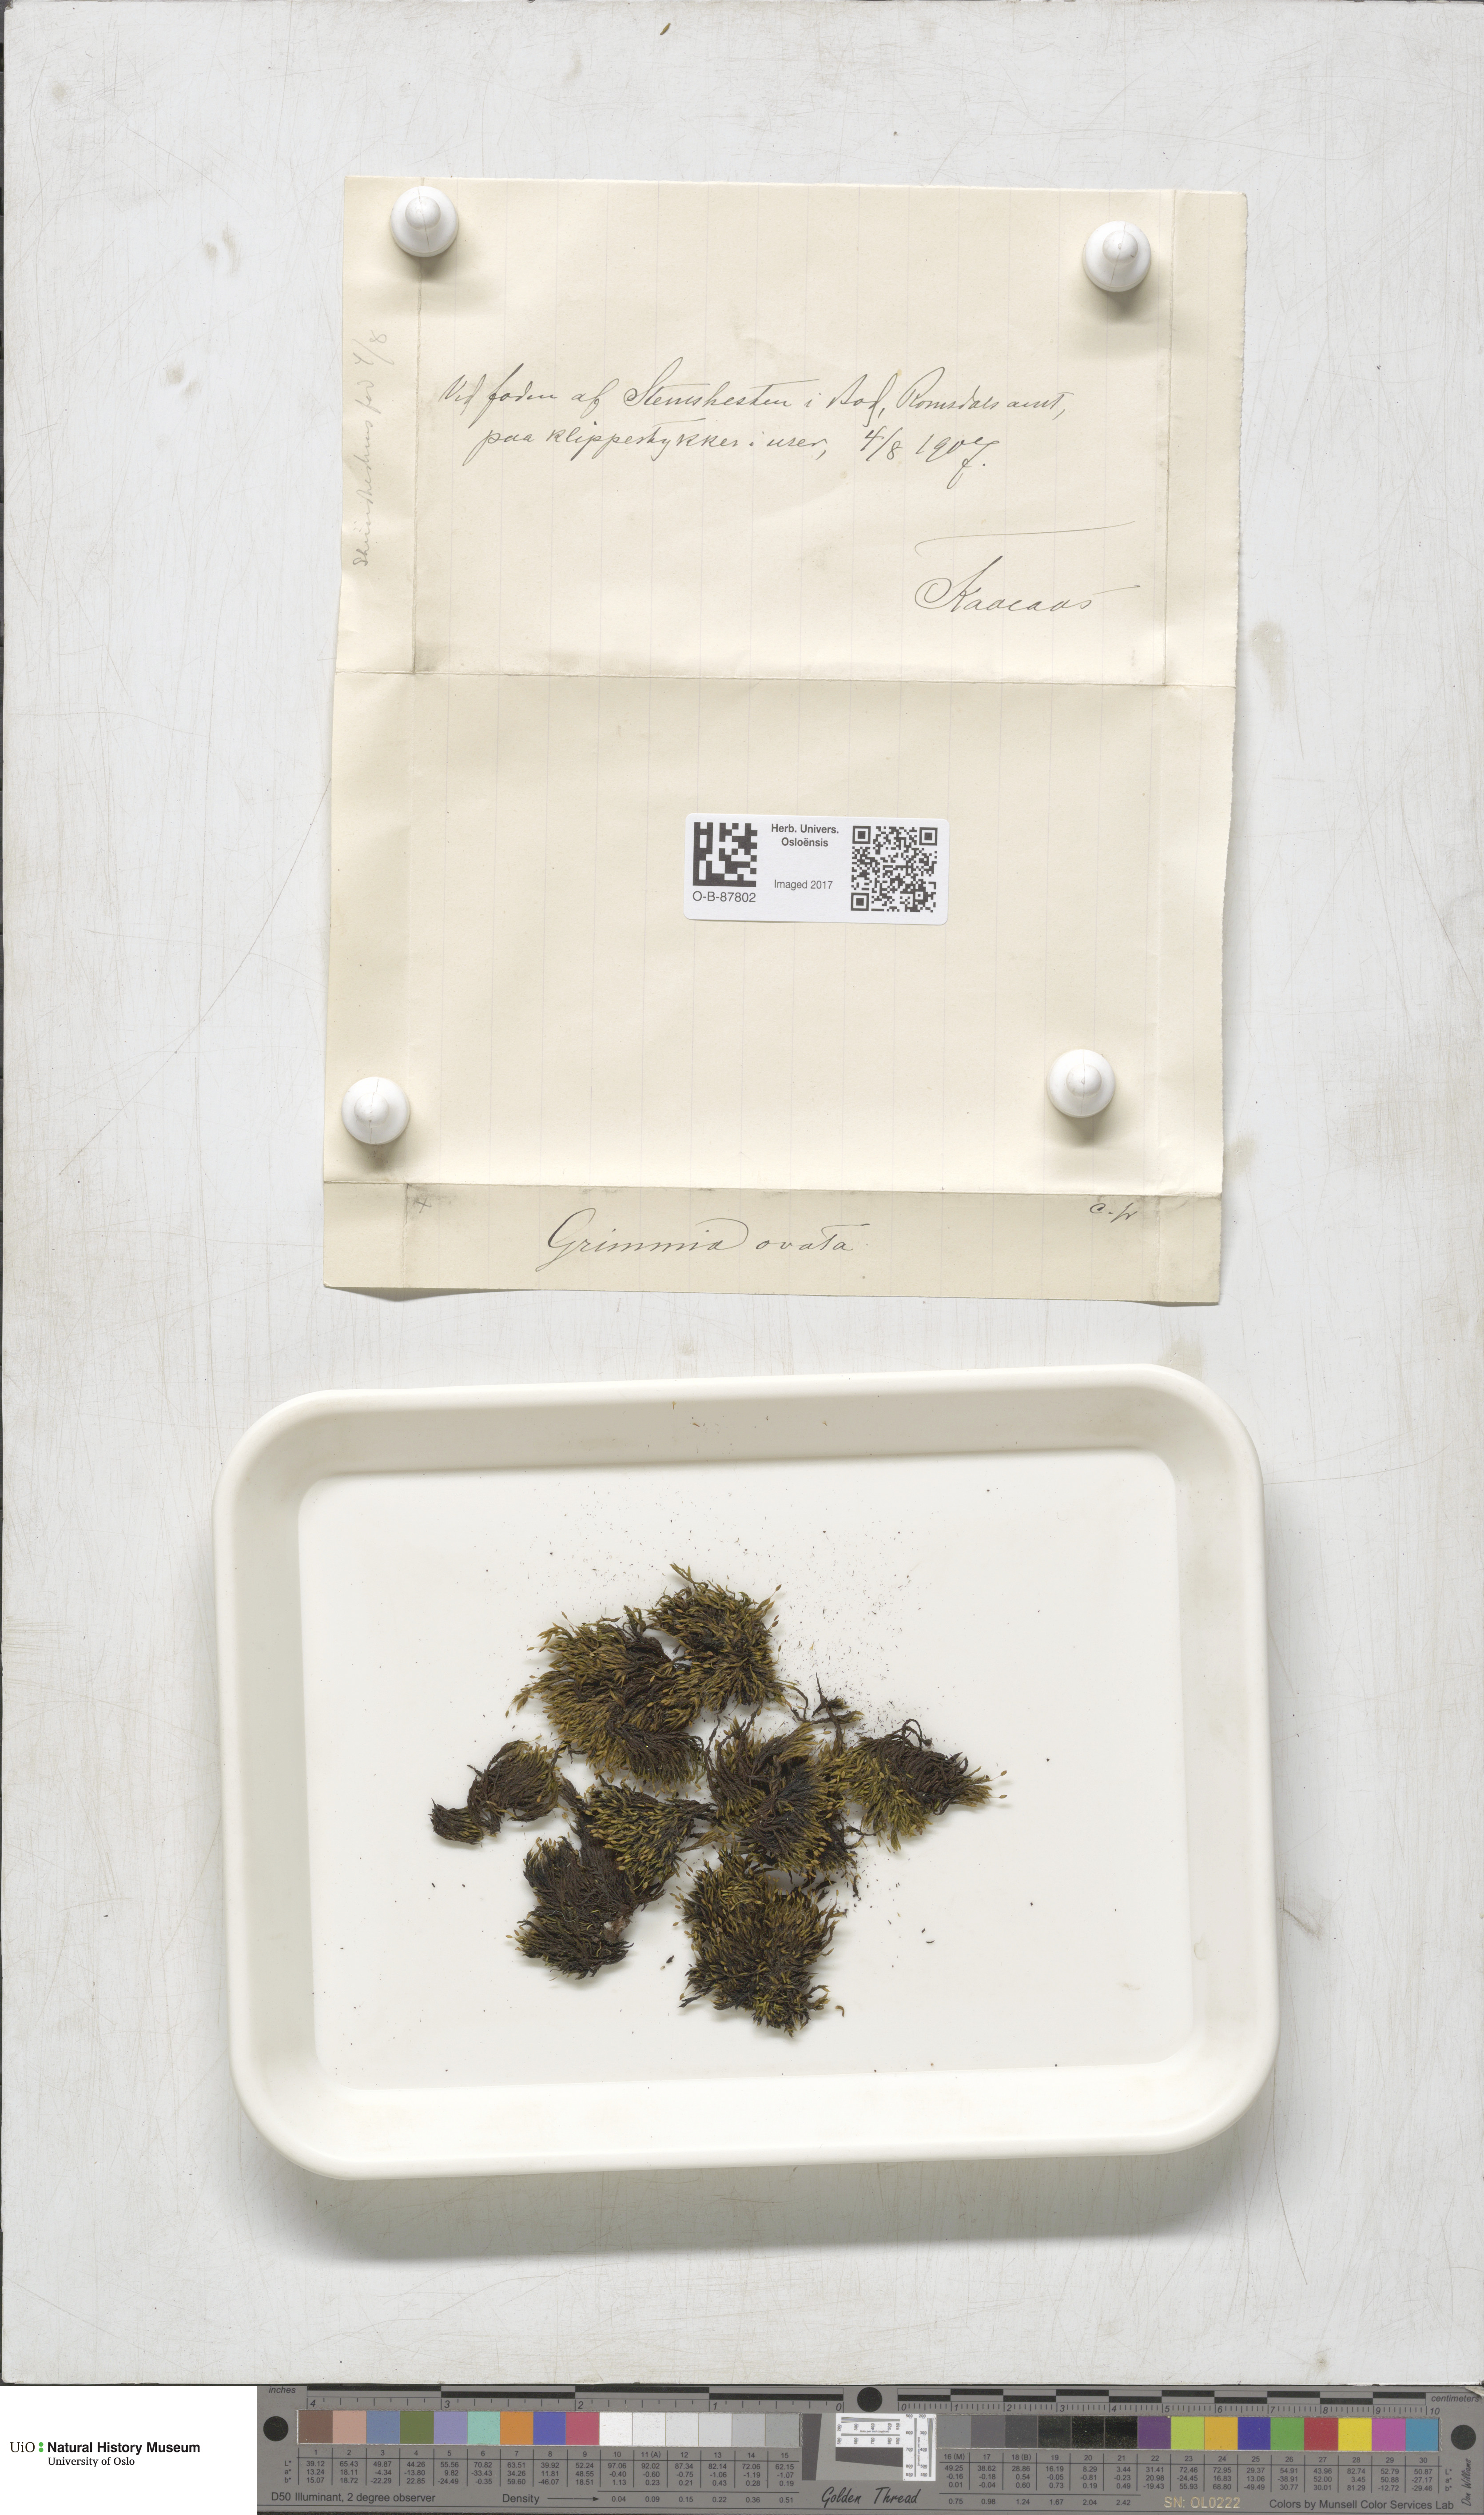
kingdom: Plantae
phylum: Bryophyta
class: Bryopsida
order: Grimmiales
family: Grimmiaceae
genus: Grimmia
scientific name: Grimmia ovalis
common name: Oval grimmia
